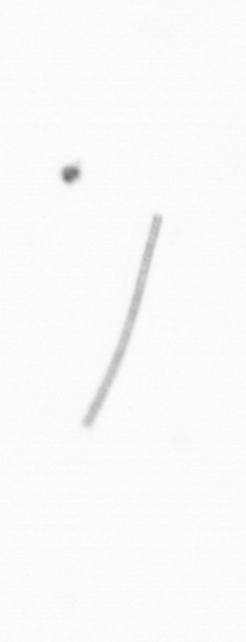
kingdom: Chromista
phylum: Ochrophyta
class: Bacillariophyceae
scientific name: Bacillariophyceae
